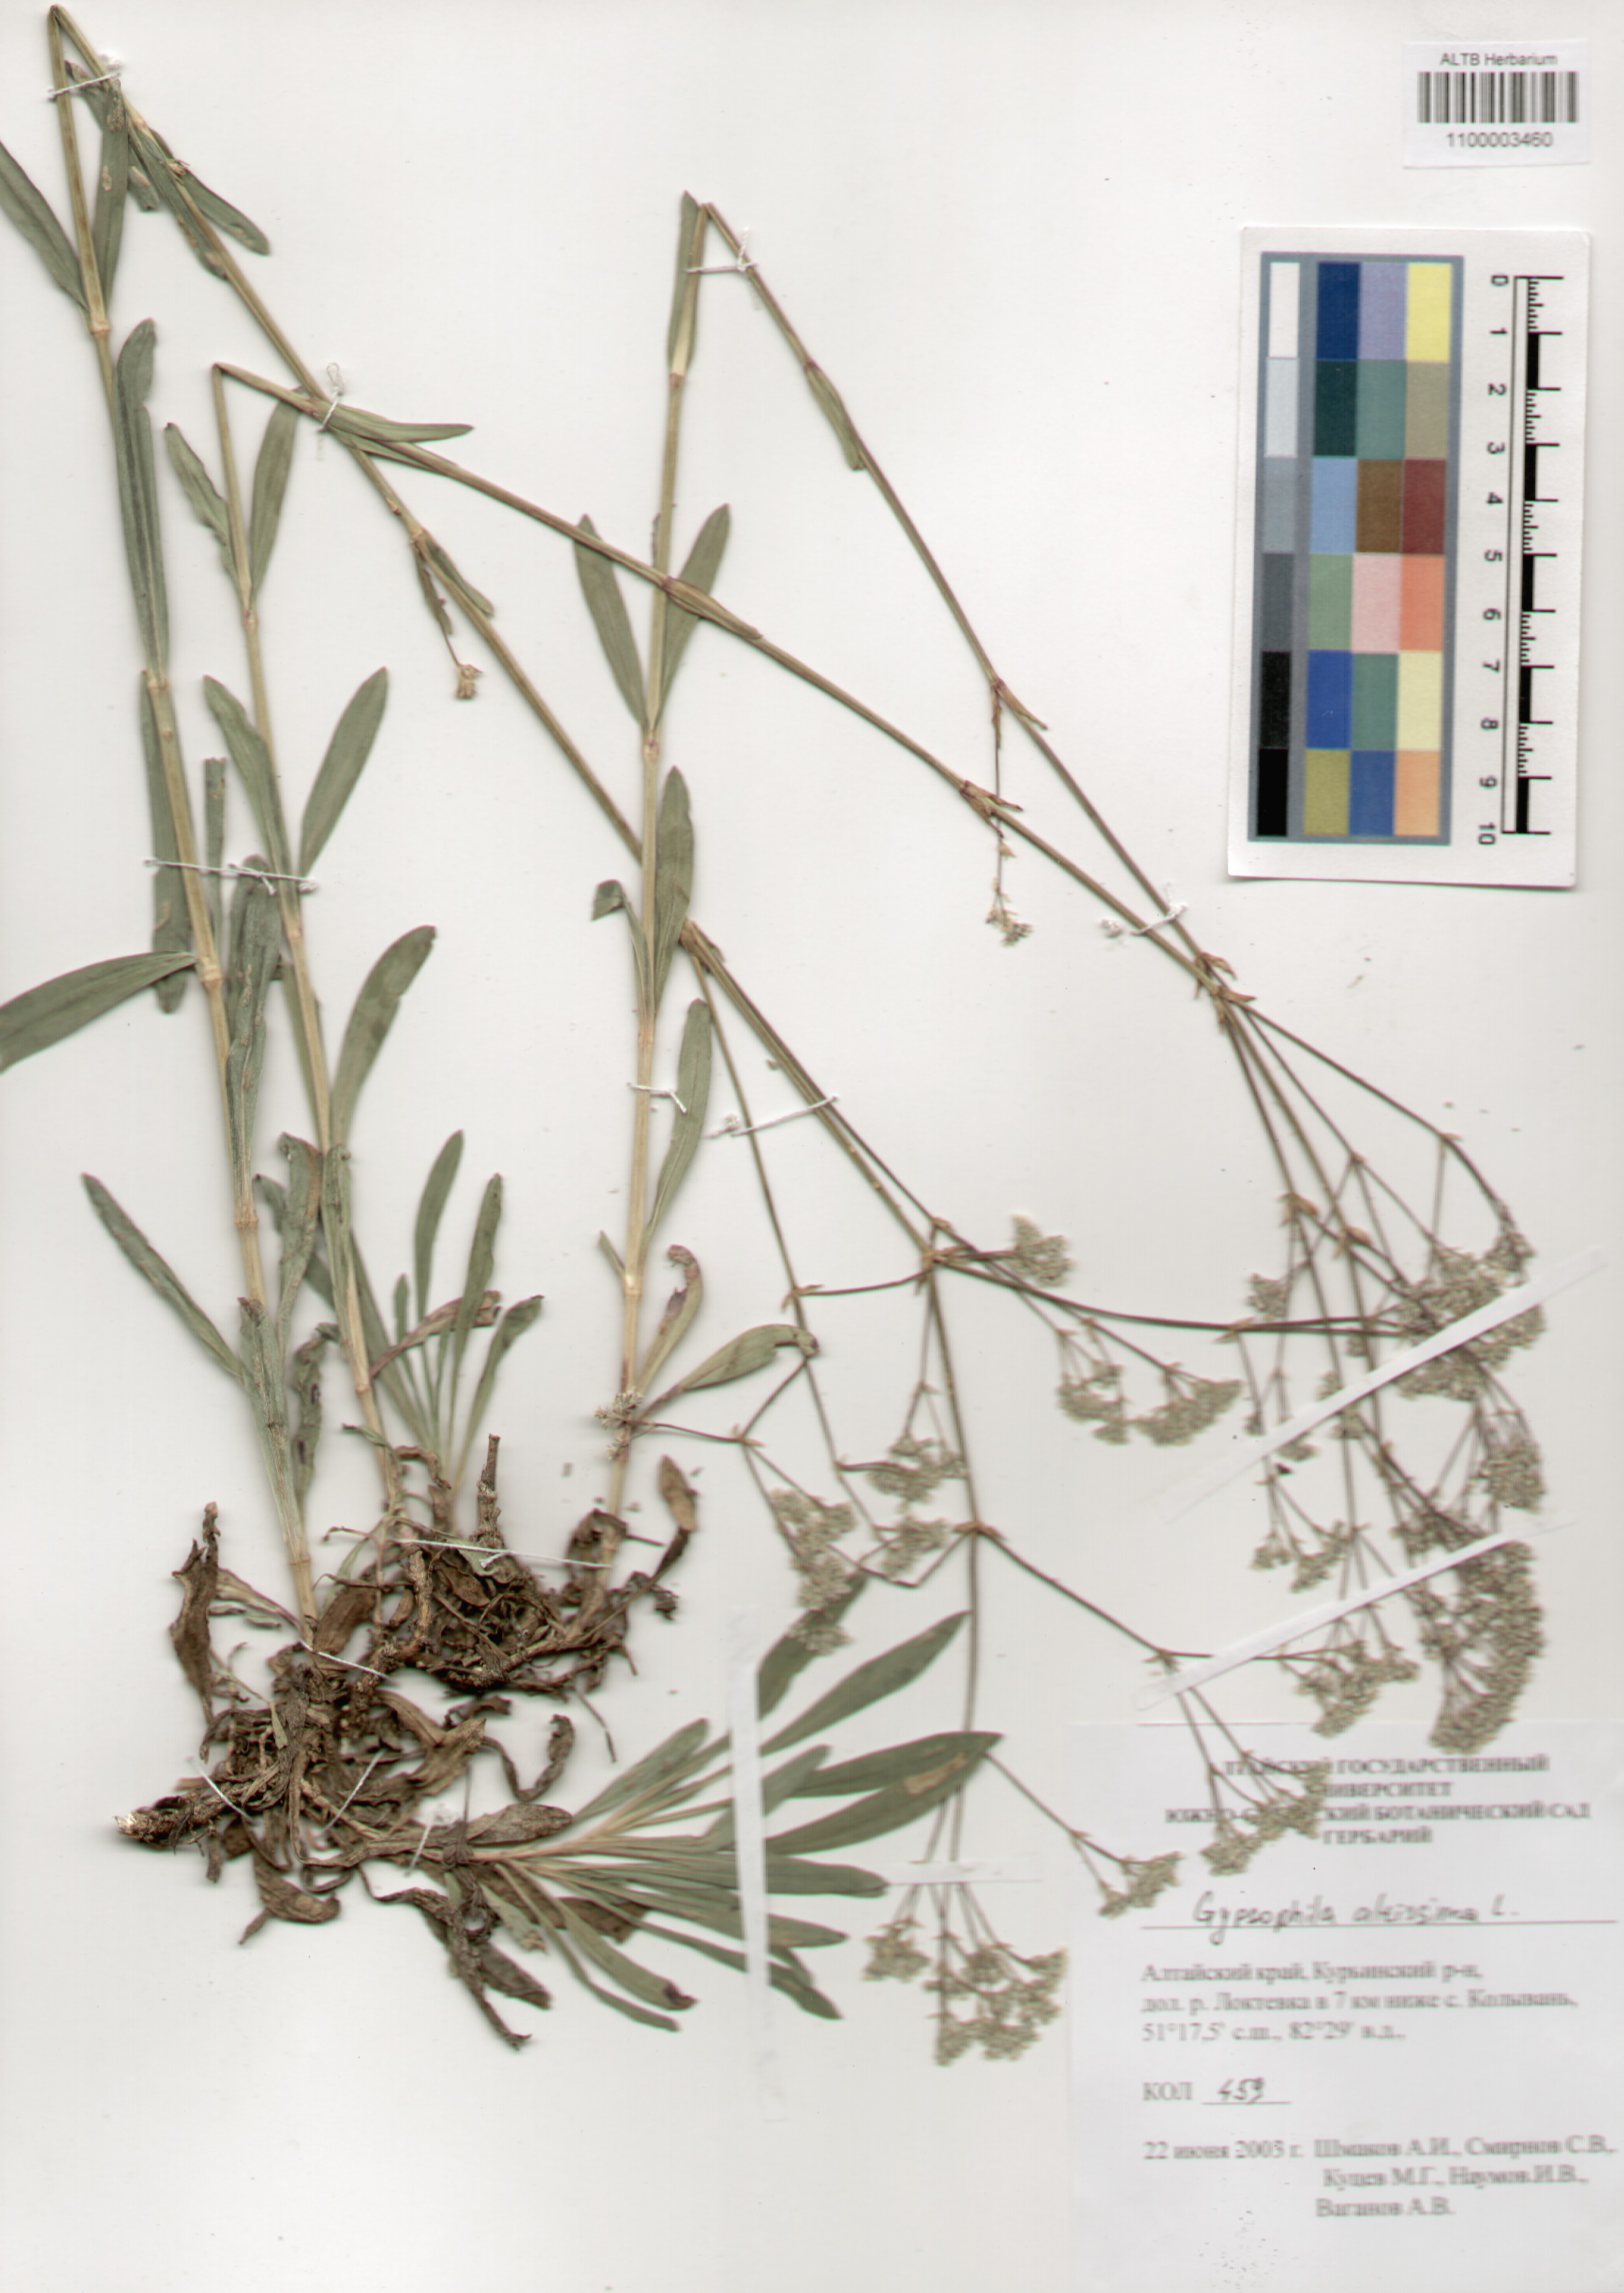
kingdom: Plantae
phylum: Tracheophyta
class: Magnoliopsida
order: Caryophyllales
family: Caryophyllaceae
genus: Gypsophila
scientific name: Gypsophila altissima
